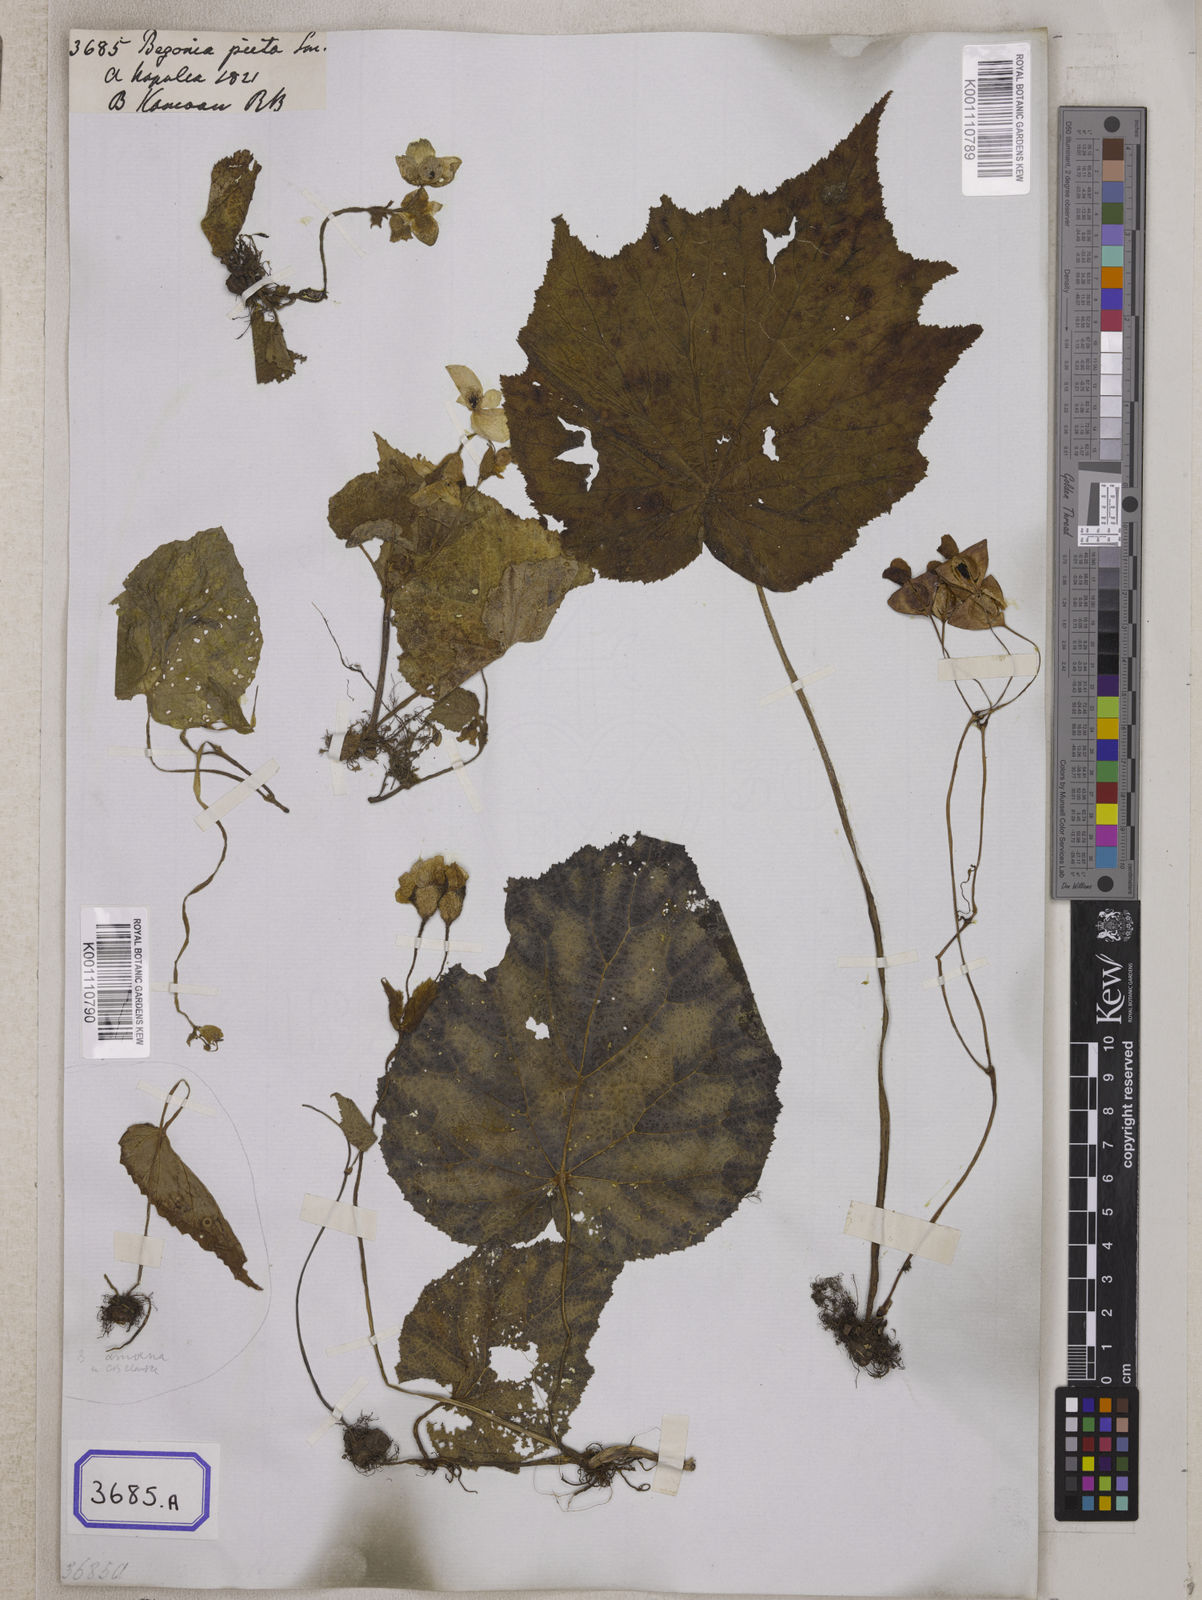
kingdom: Plantae
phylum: Tracheophyta
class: Magnoliopsida
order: Cucurbitales
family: Begoniaceae
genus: Begonia
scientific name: Begonia picta
